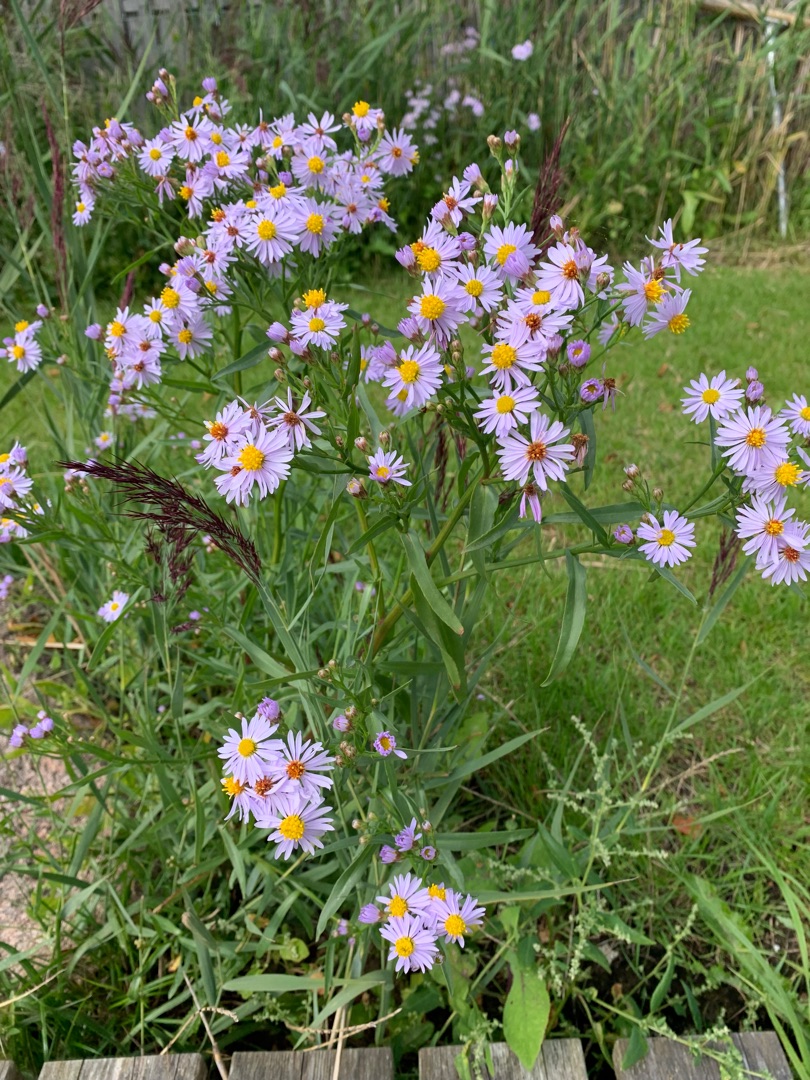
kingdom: Plantae
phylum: Tracheophyta
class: Magnoliopsida
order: Asterales
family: Asteraceae
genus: Tripolium
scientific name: Tripolium pannonicum
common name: Strandasters
